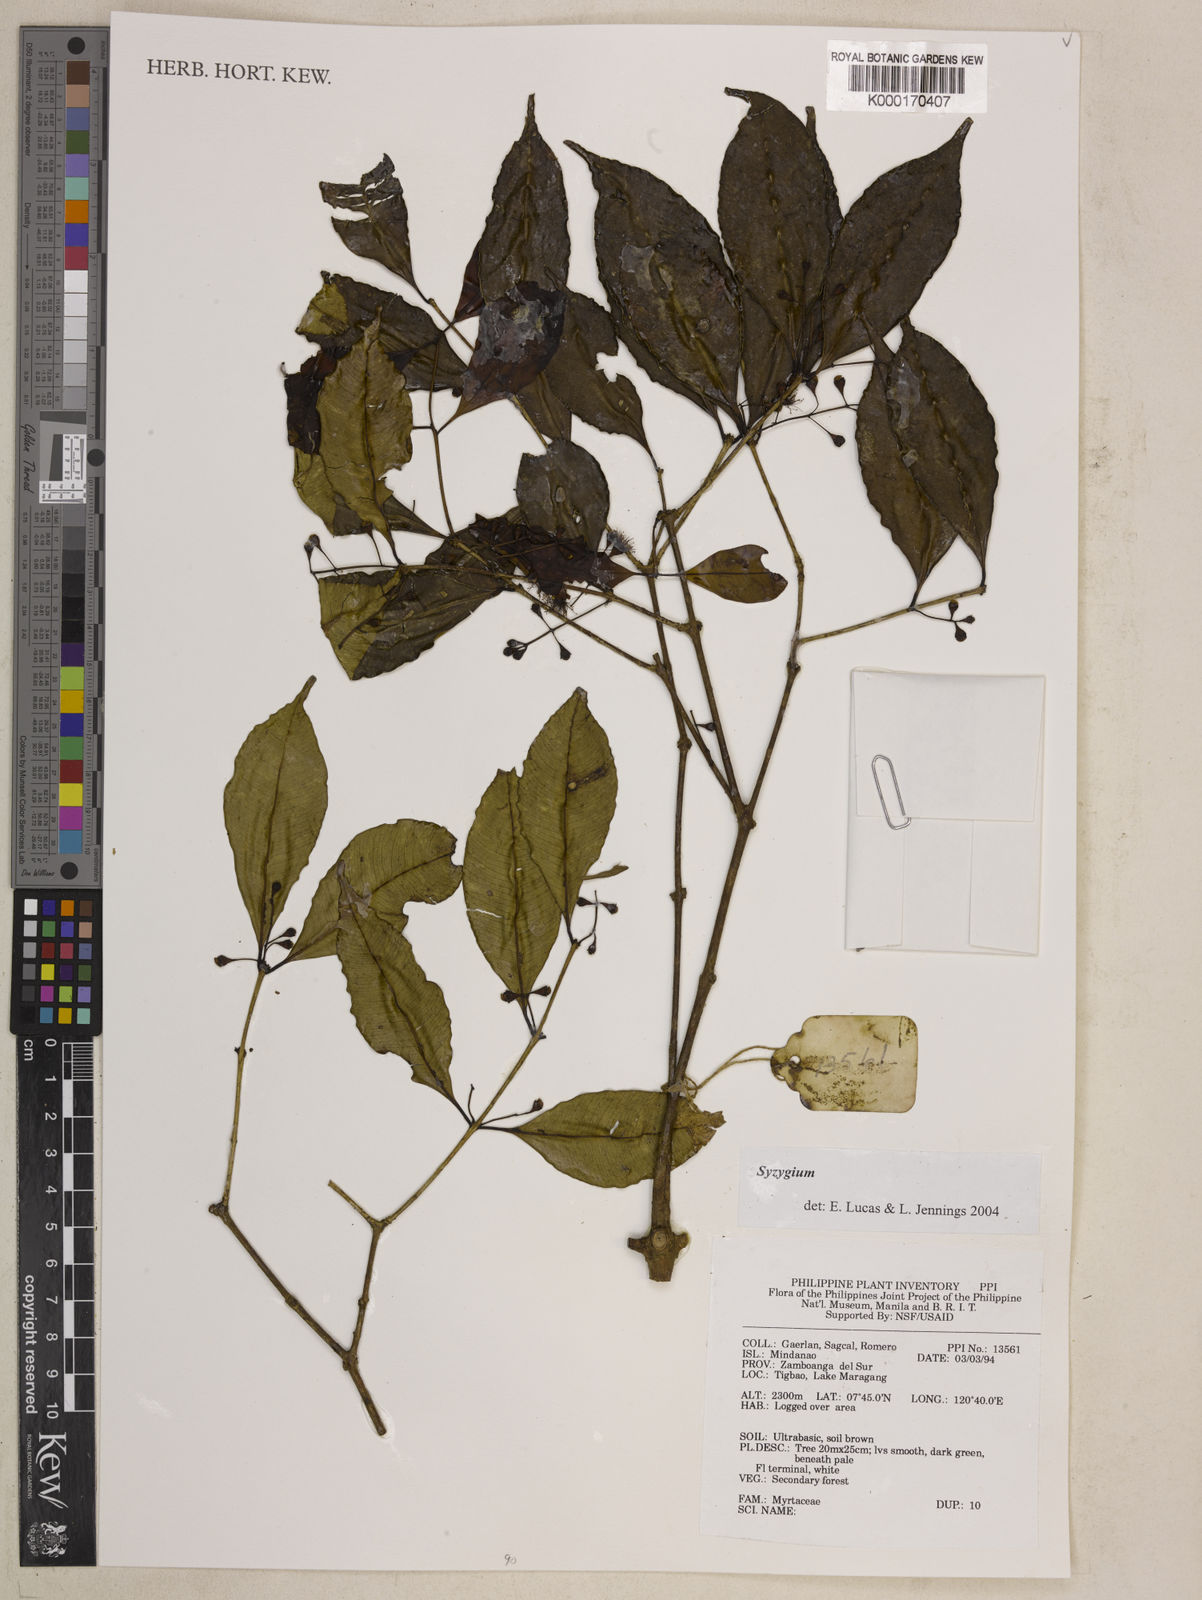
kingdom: Plantae
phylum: Tracheophyta
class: Magnoliopsida
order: Myrtales
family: Myrtaceae
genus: Syzygium
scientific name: Syzygium
